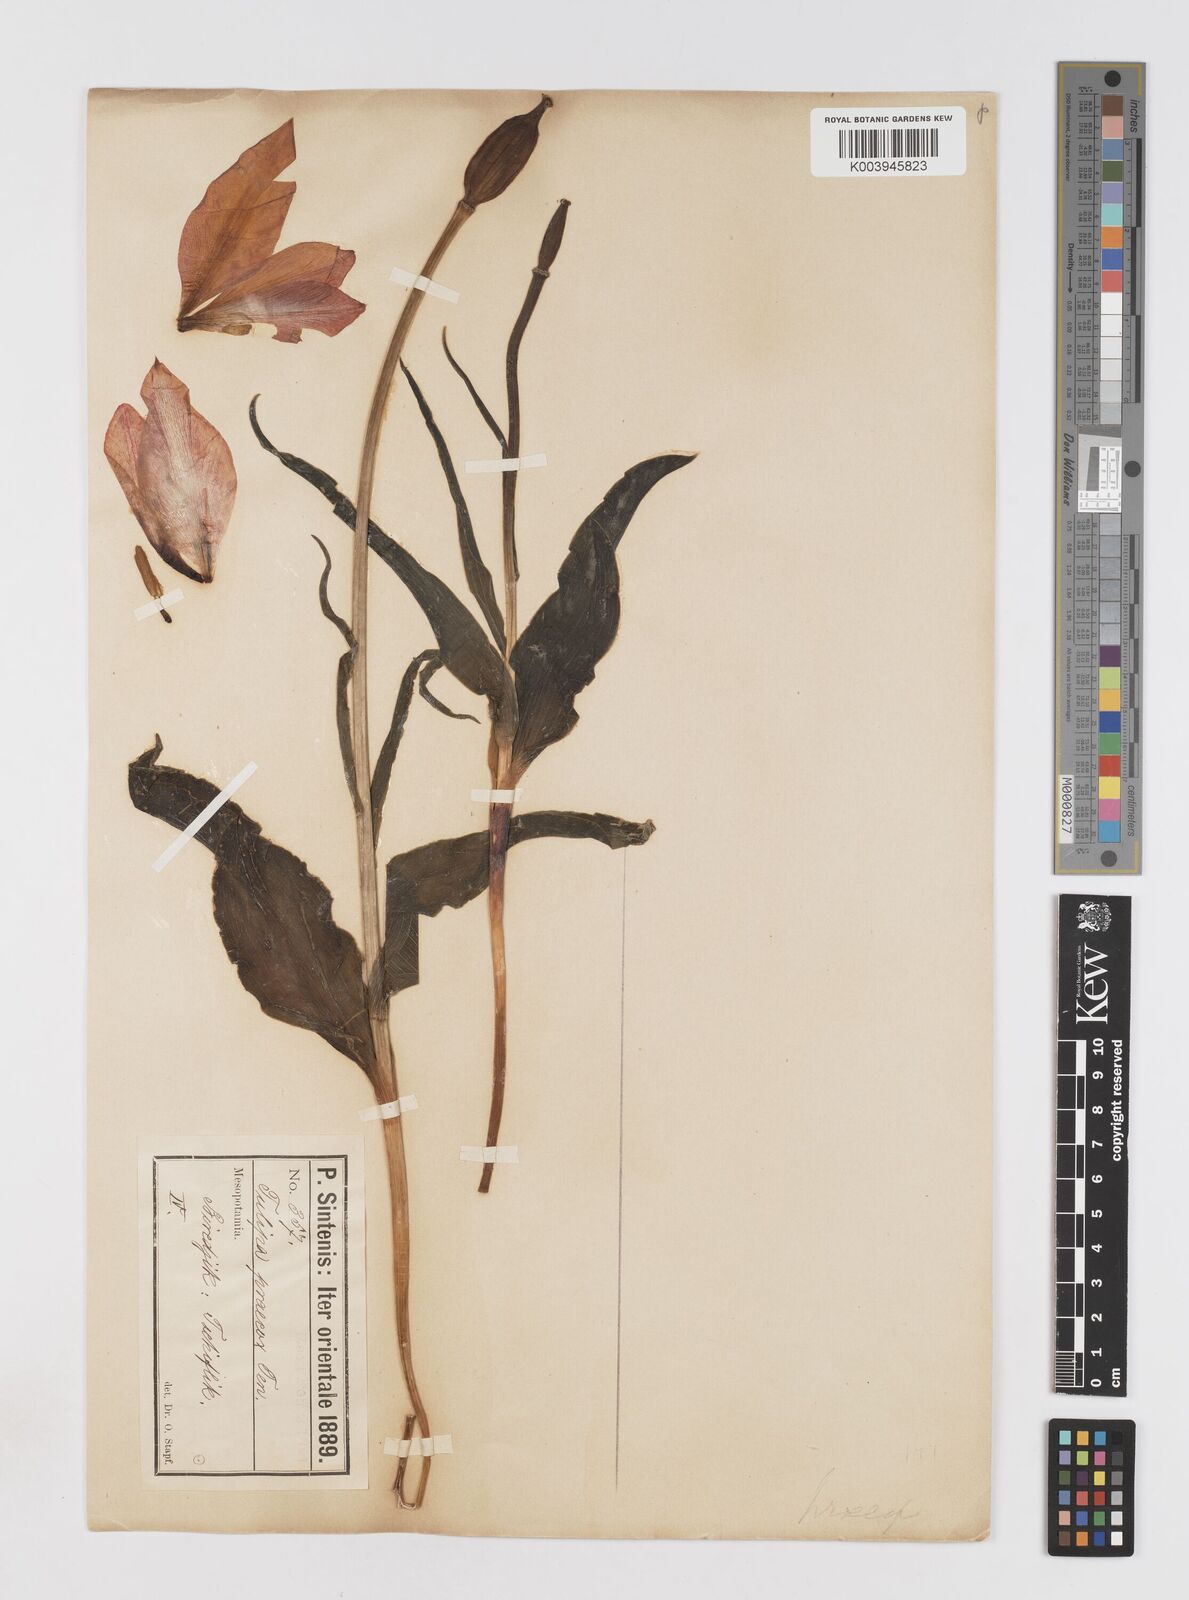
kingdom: Plantae
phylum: Tracheophyta
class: Liliopsida
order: Liliales
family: Liliaceae
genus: Tulipa
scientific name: Tulipa aleppensis
